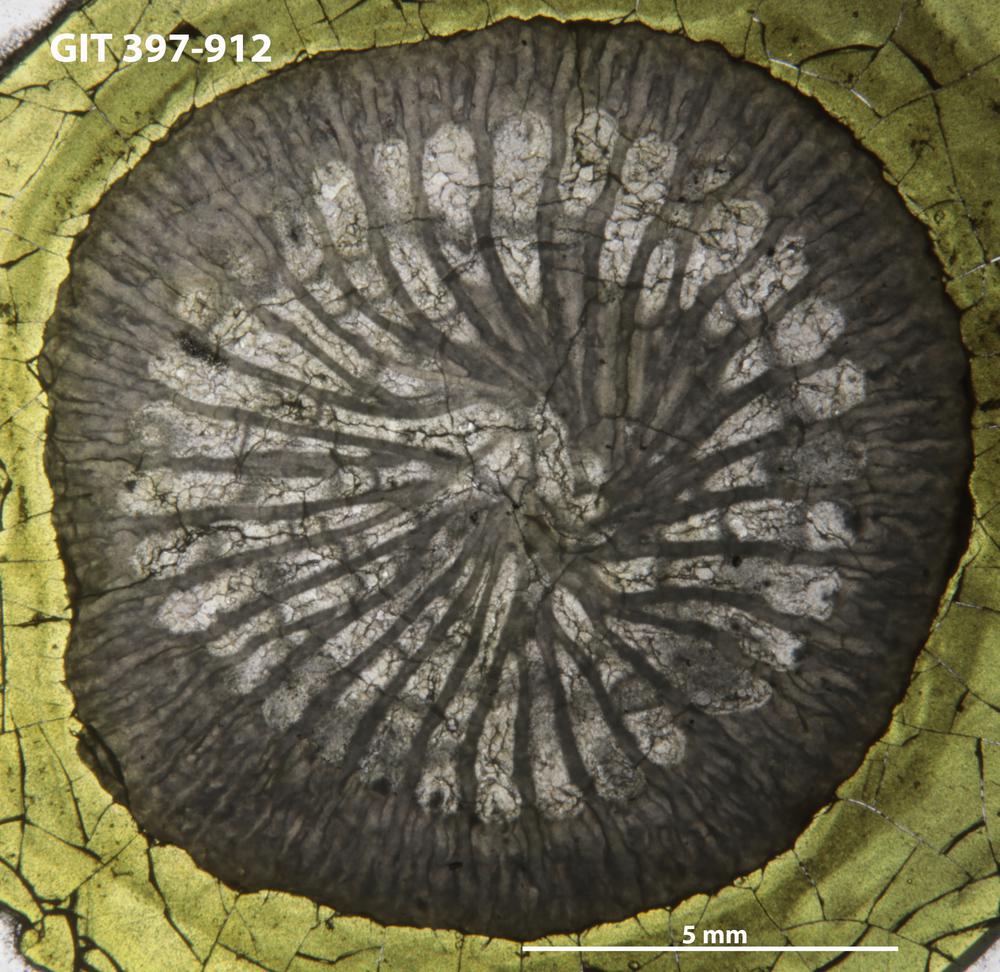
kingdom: Animalia
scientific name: Animalia
